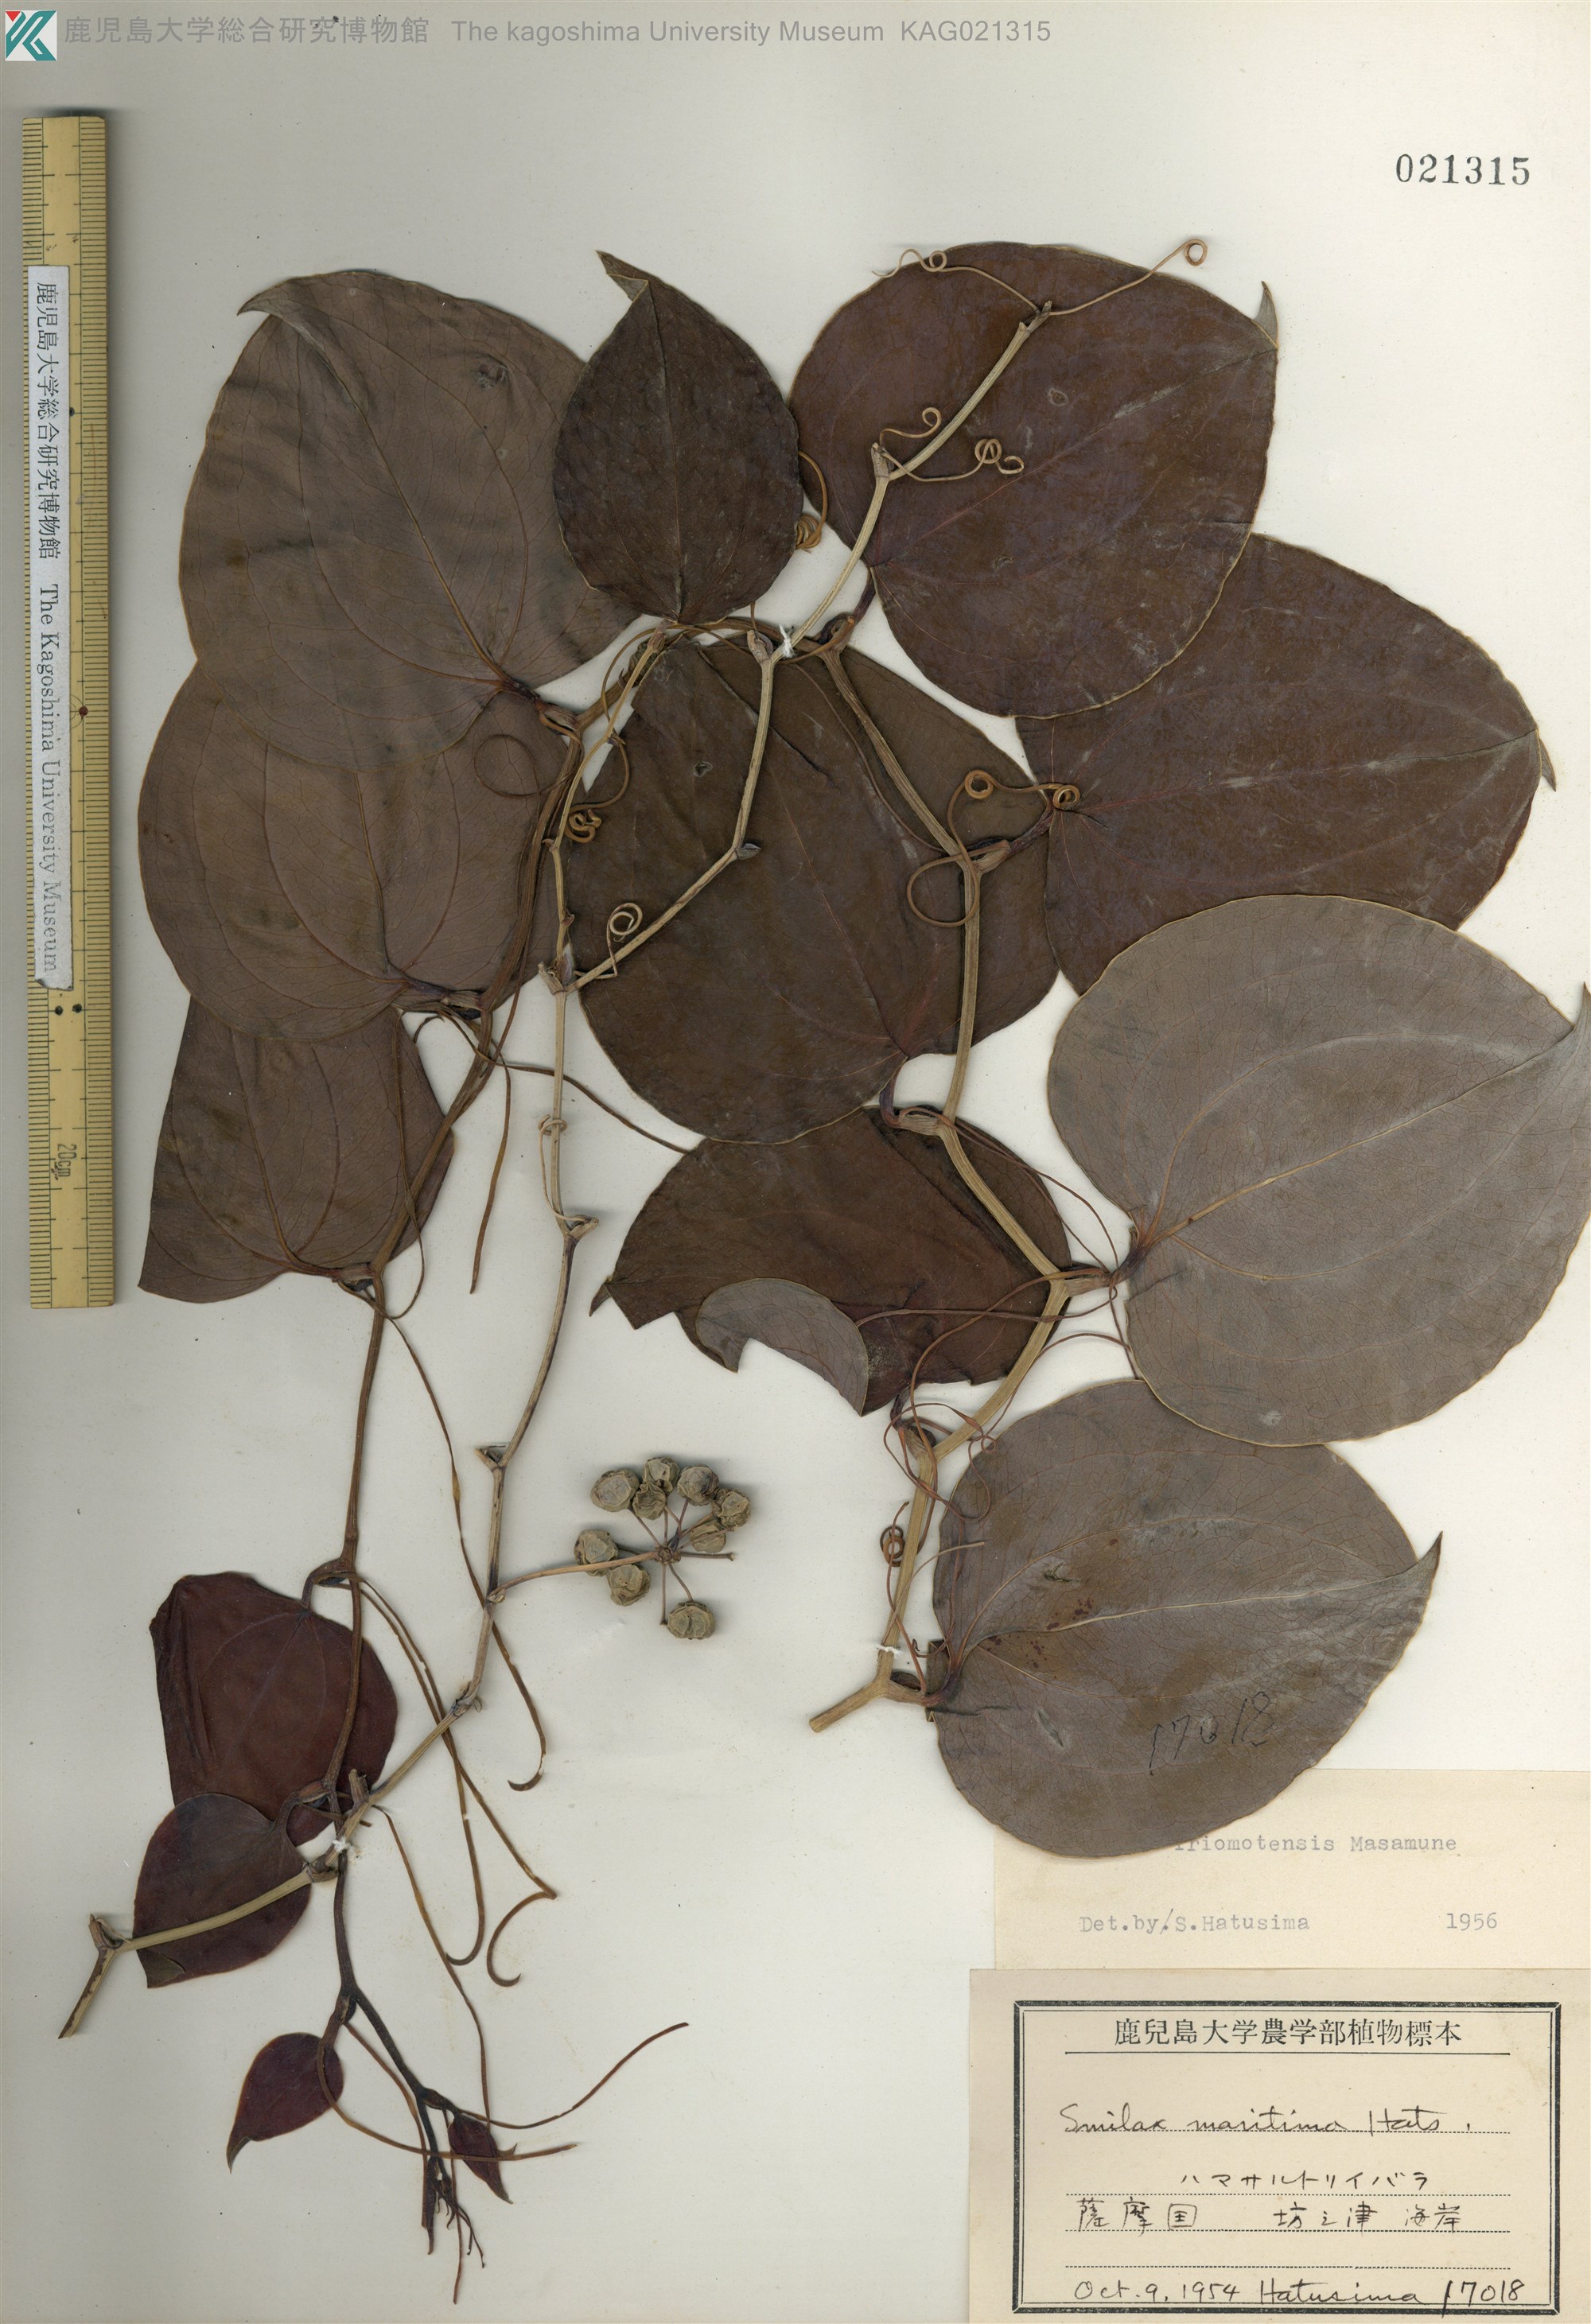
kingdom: Plantae
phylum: Tracheophyta
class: Liliopsida
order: Liliales
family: Smilacaceae
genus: Smilax
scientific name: Smilax sebeana
